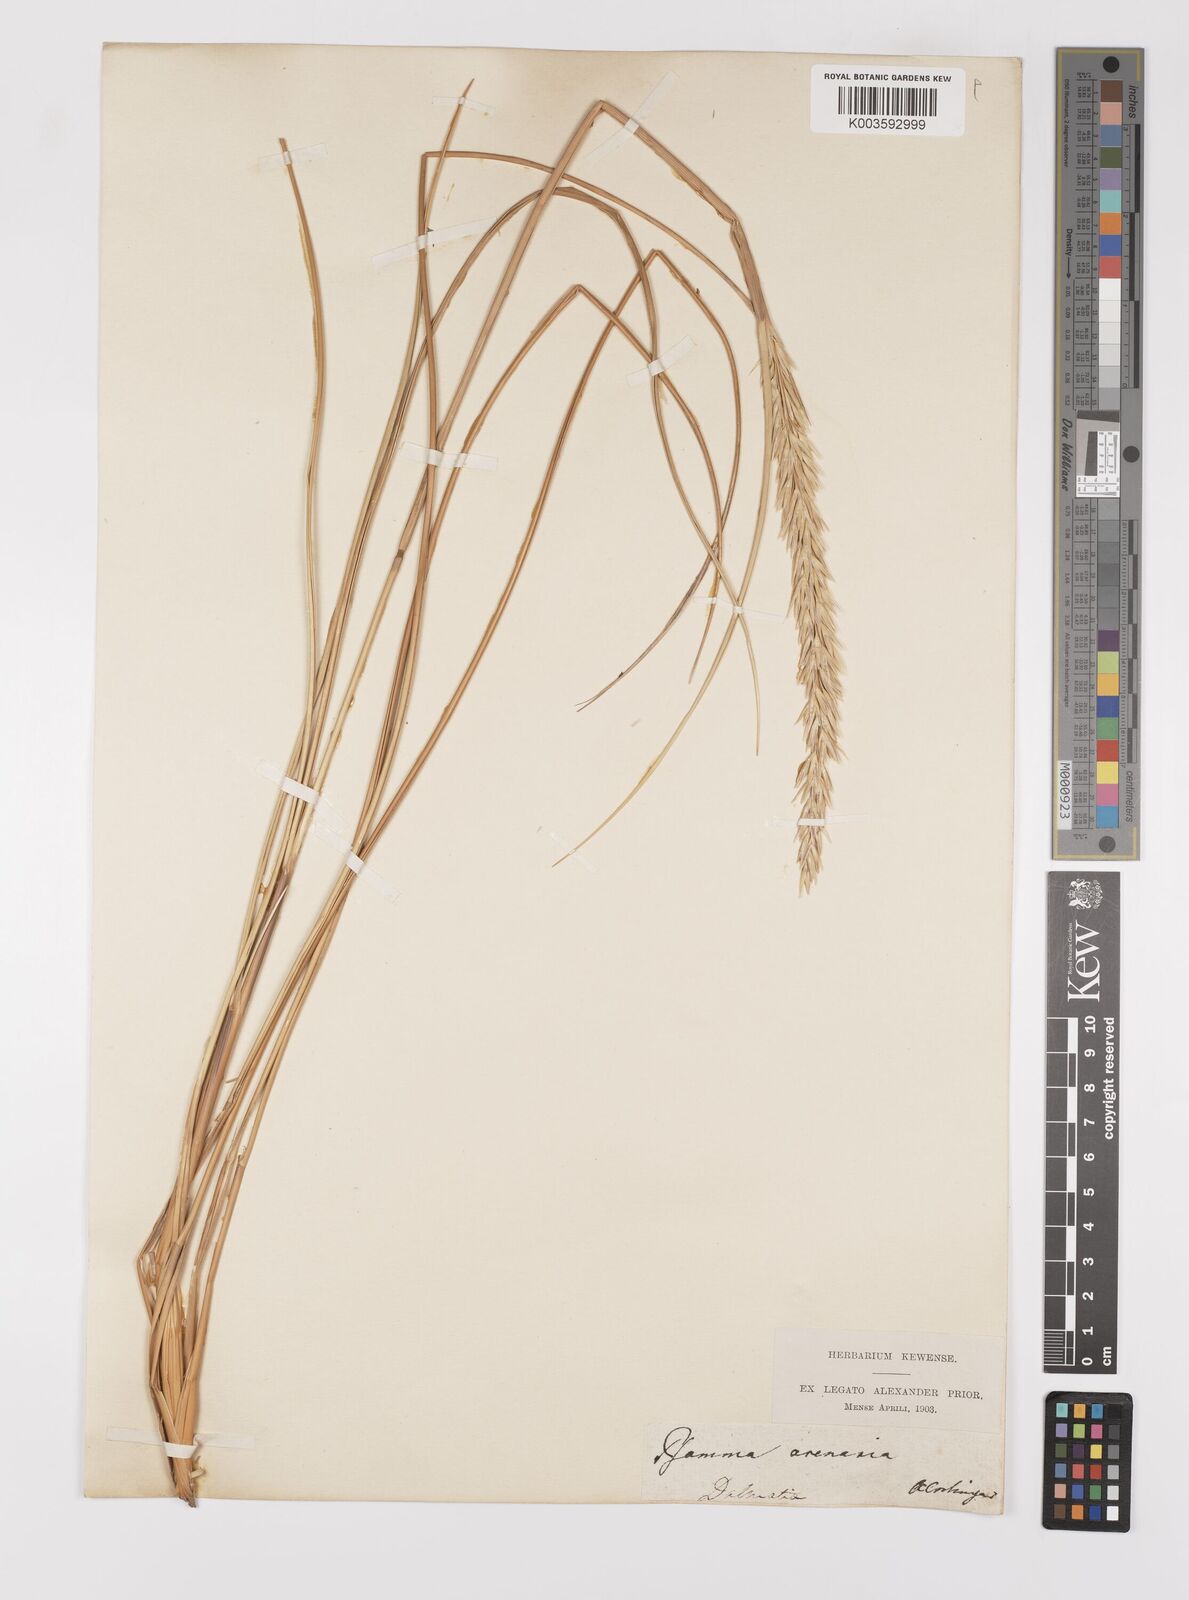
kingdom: Plantae
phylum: Tracheophyta
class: Liliopsida
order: Poales
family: Poaceae
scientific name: Poaceae
